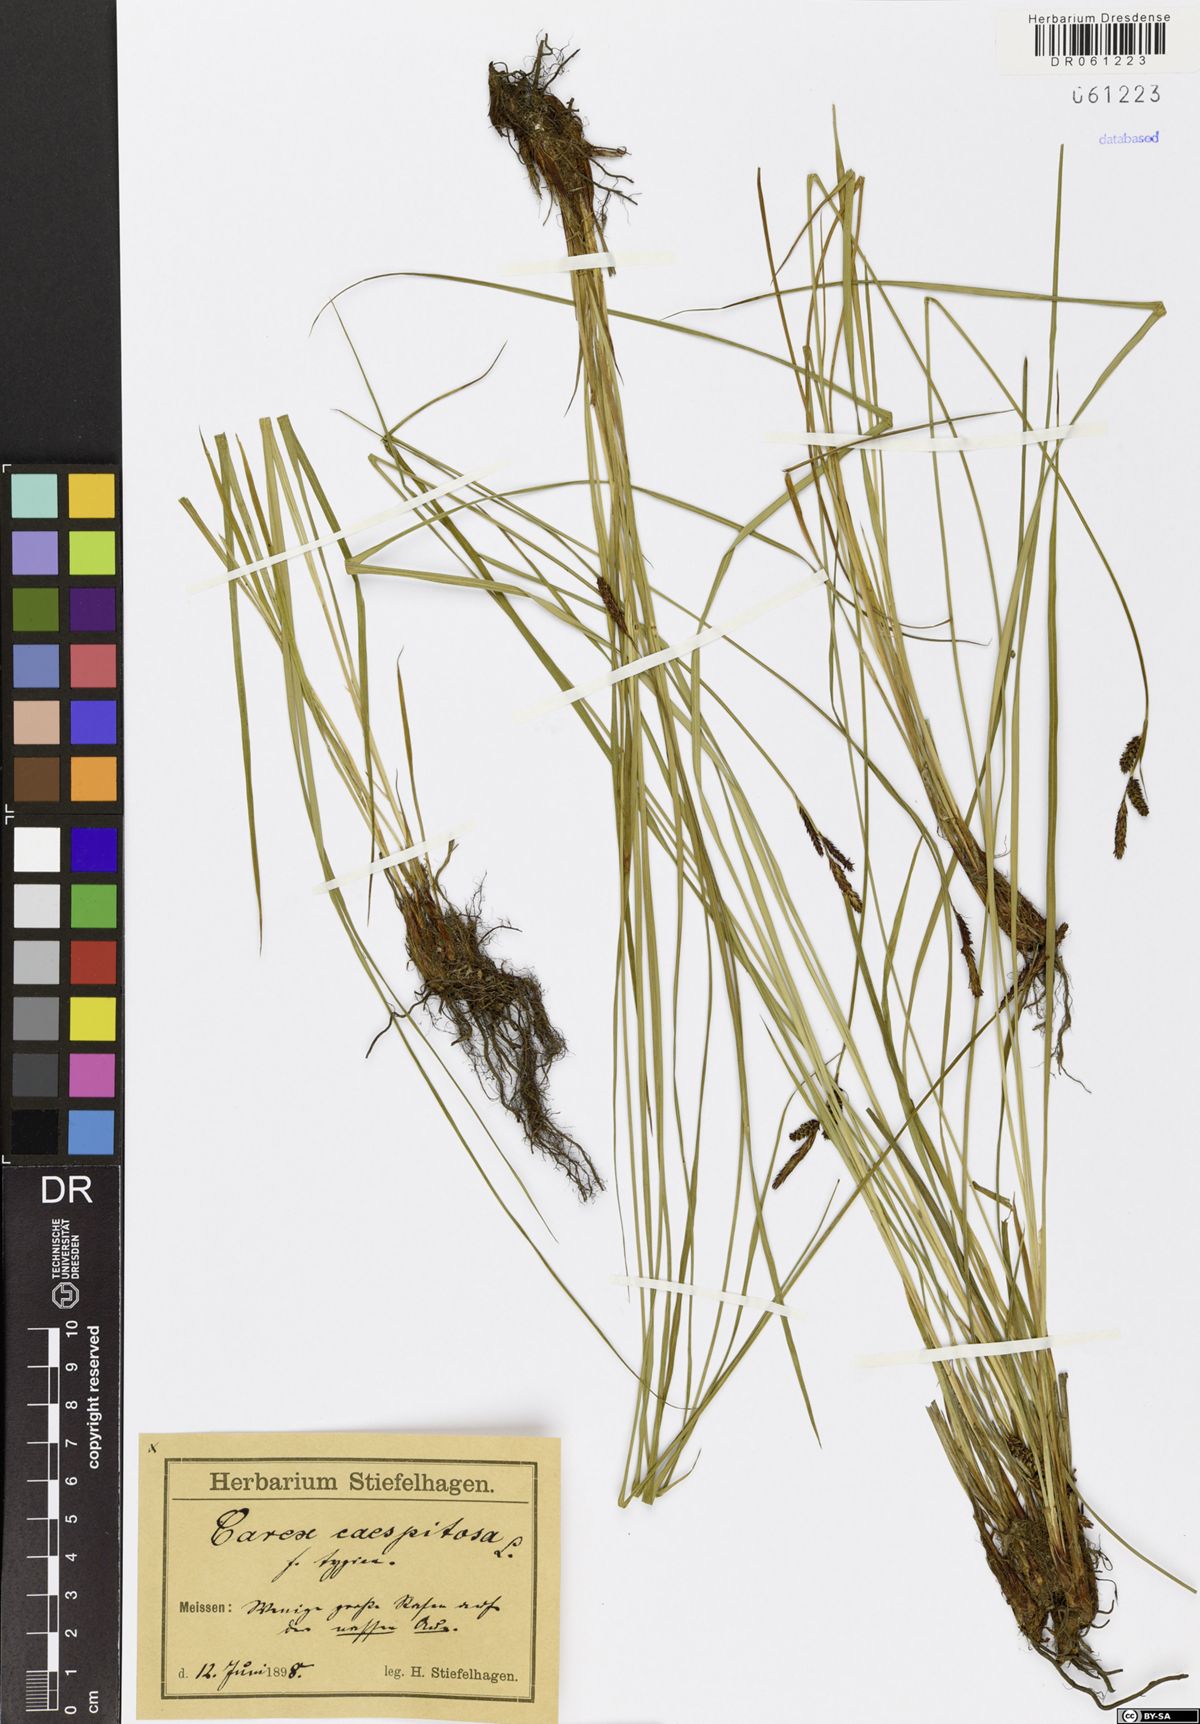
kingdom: Plantae
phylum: Tracheophyta
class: Liliopsida
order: Poales
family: Cyperaceae
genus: Carex
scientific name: Carex cespitosa
